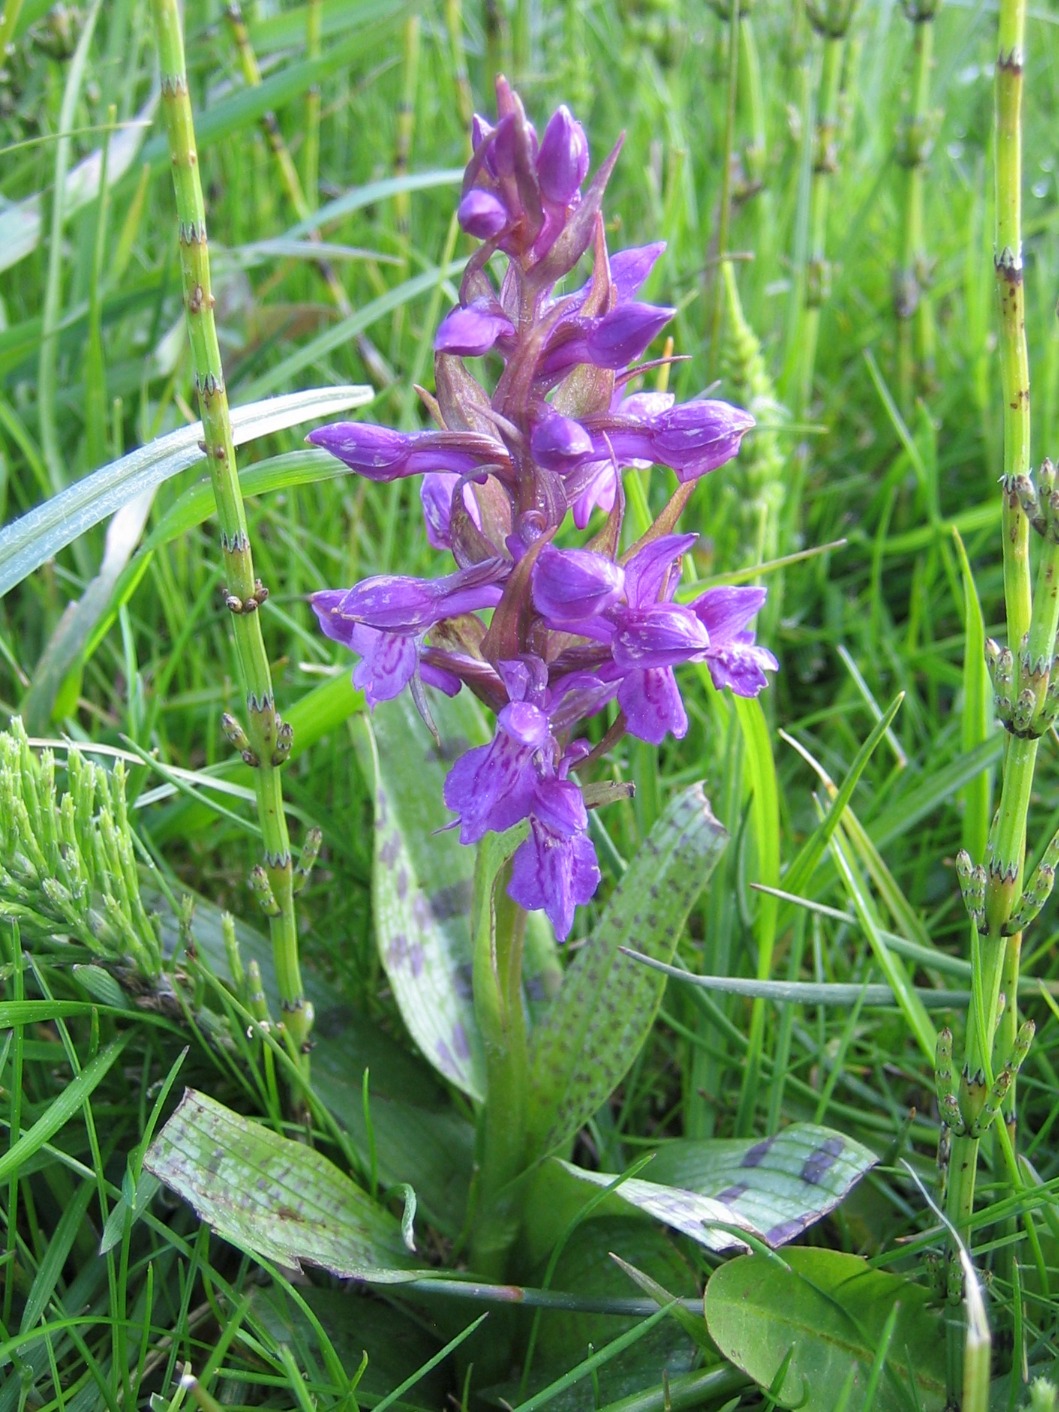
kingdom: Plantae
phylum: Tracheophyta
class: Liliopsida
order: Asparagales
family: Orchidaceae
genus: Dactylorhiza
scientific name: Dactylorhiza majalis
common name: Maj-gøgeurt
